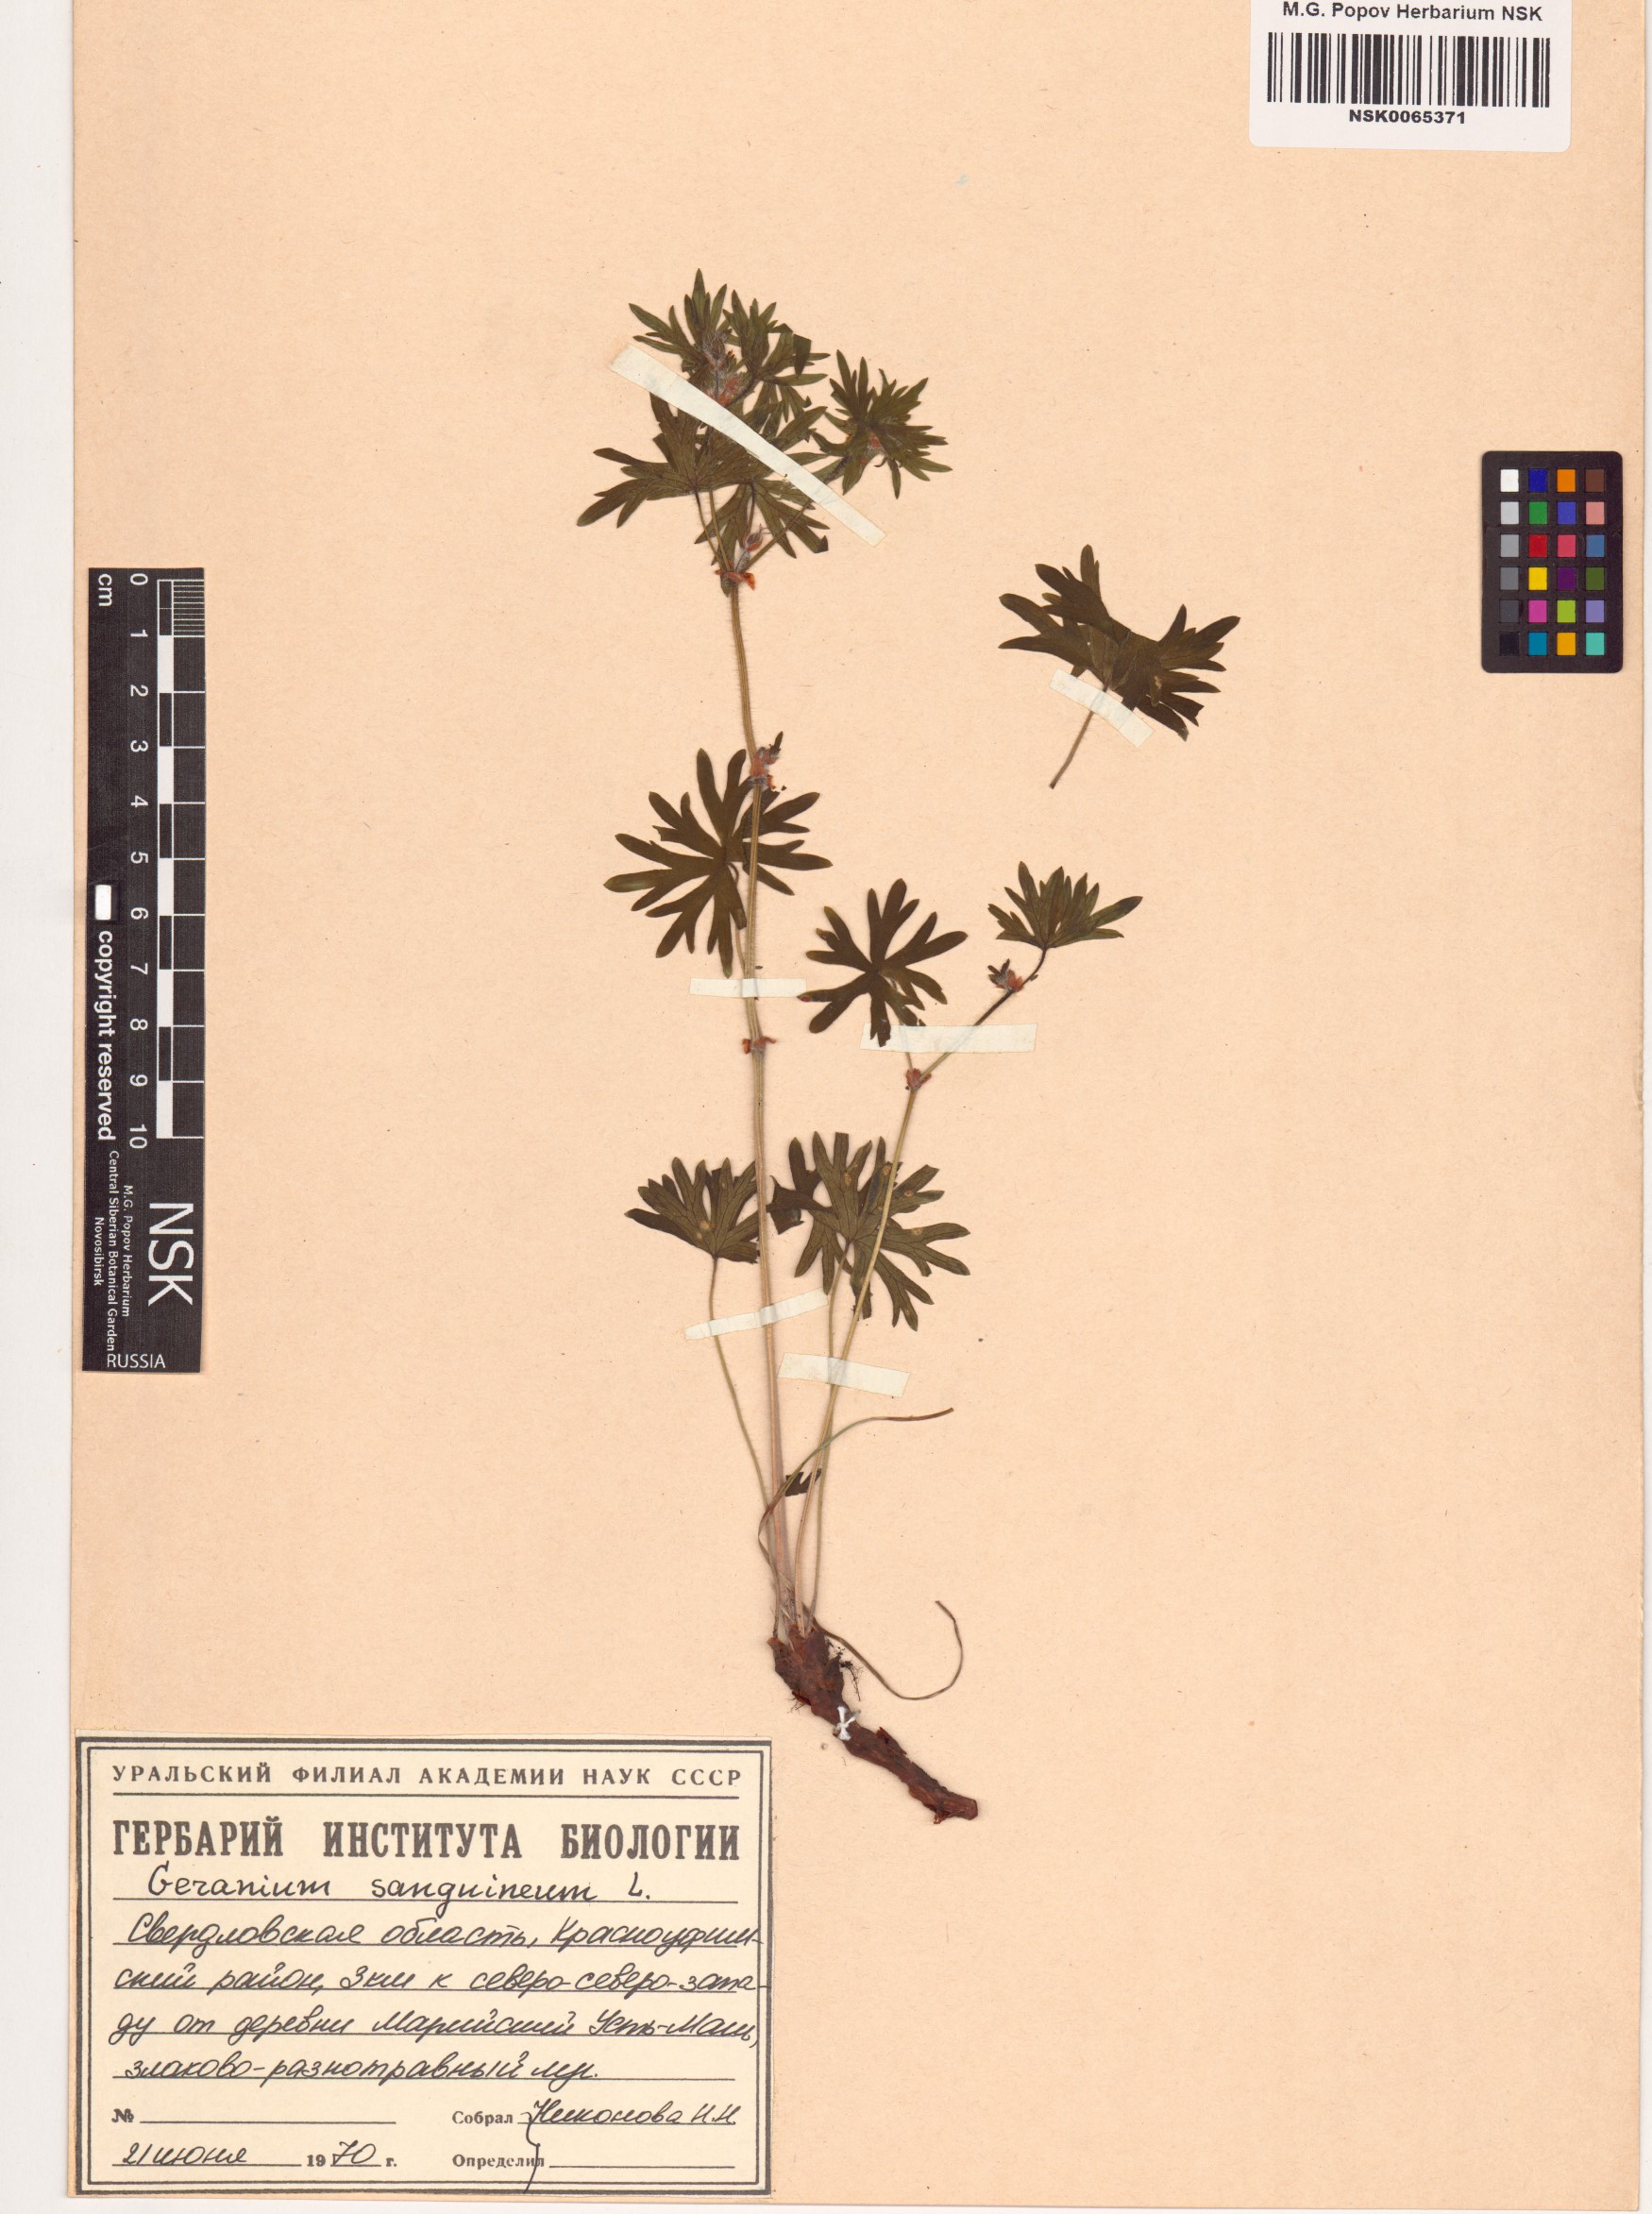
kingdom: Plantae
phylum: Tracheophyta
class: Magnoliopsida
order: Geraniales
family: Geraniaceae
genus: Geranium
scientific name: Geranium sanguineum
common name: Bloody crane's-bill
